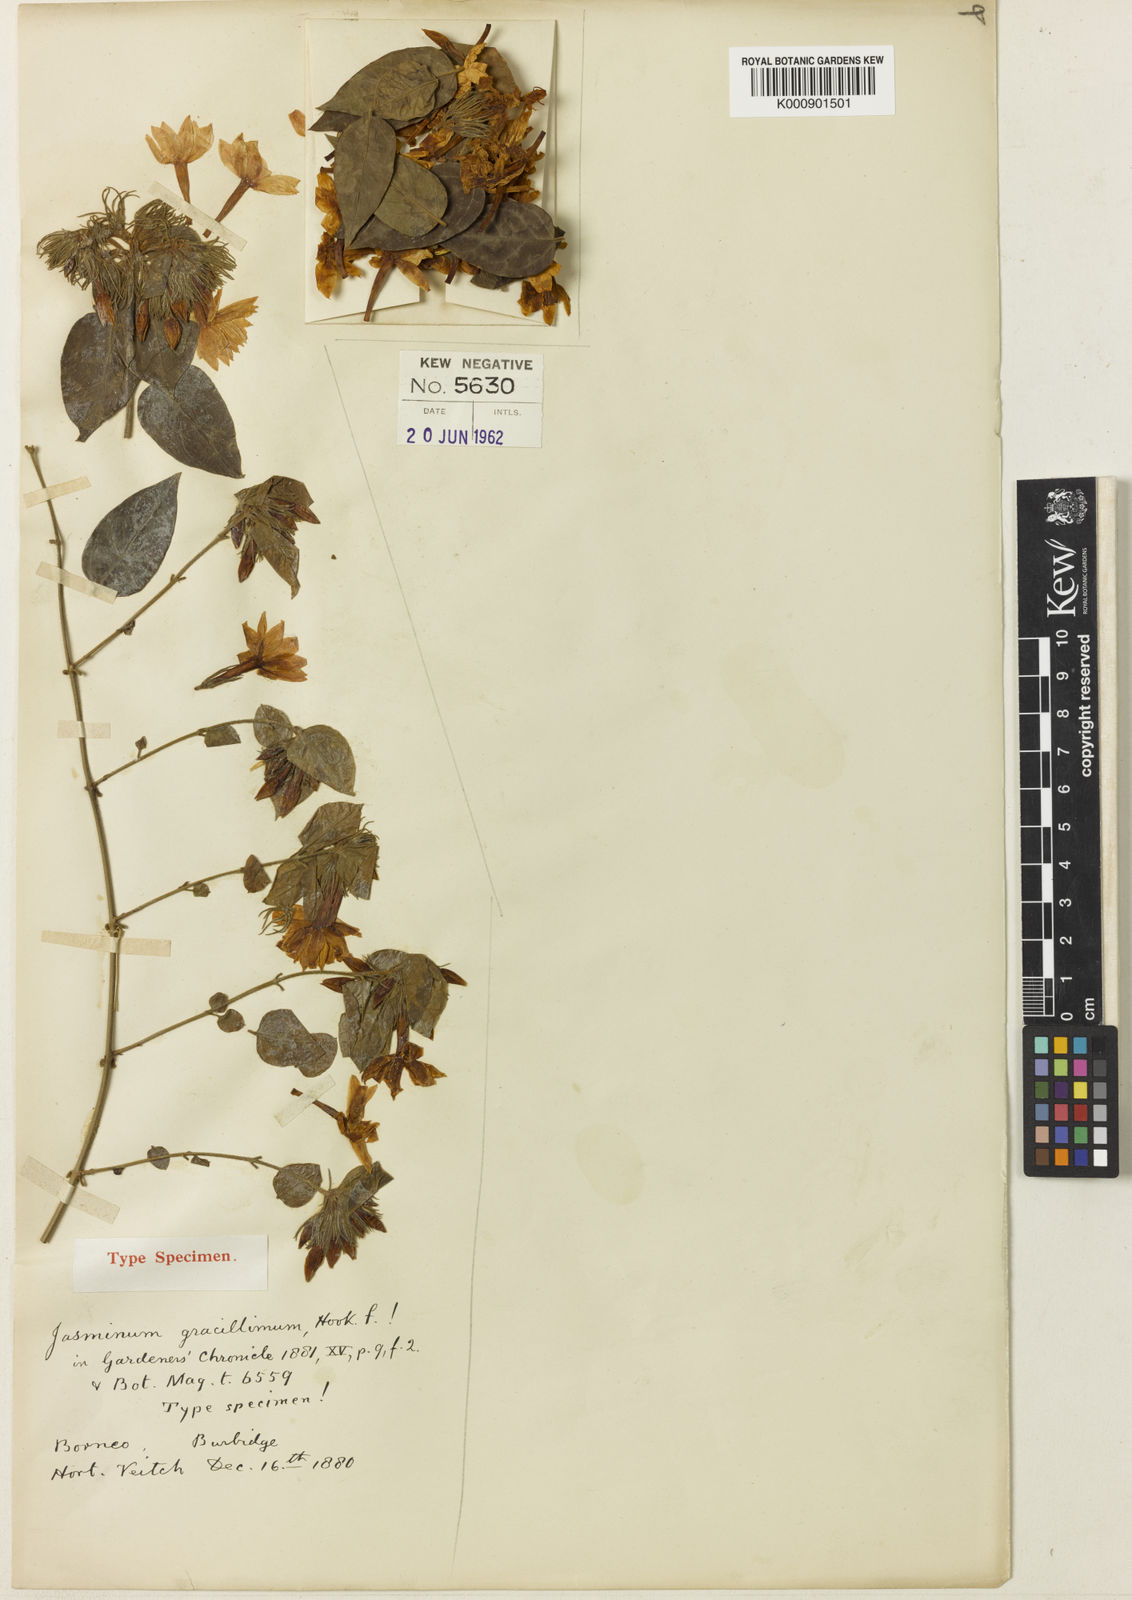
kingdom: Plantae
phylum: Tracheophyta
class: Magnoliopsida
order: Lamiales
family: Oleaceae
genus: Jasminum
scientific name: Jasminum multiflorum
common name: Star jasmine
